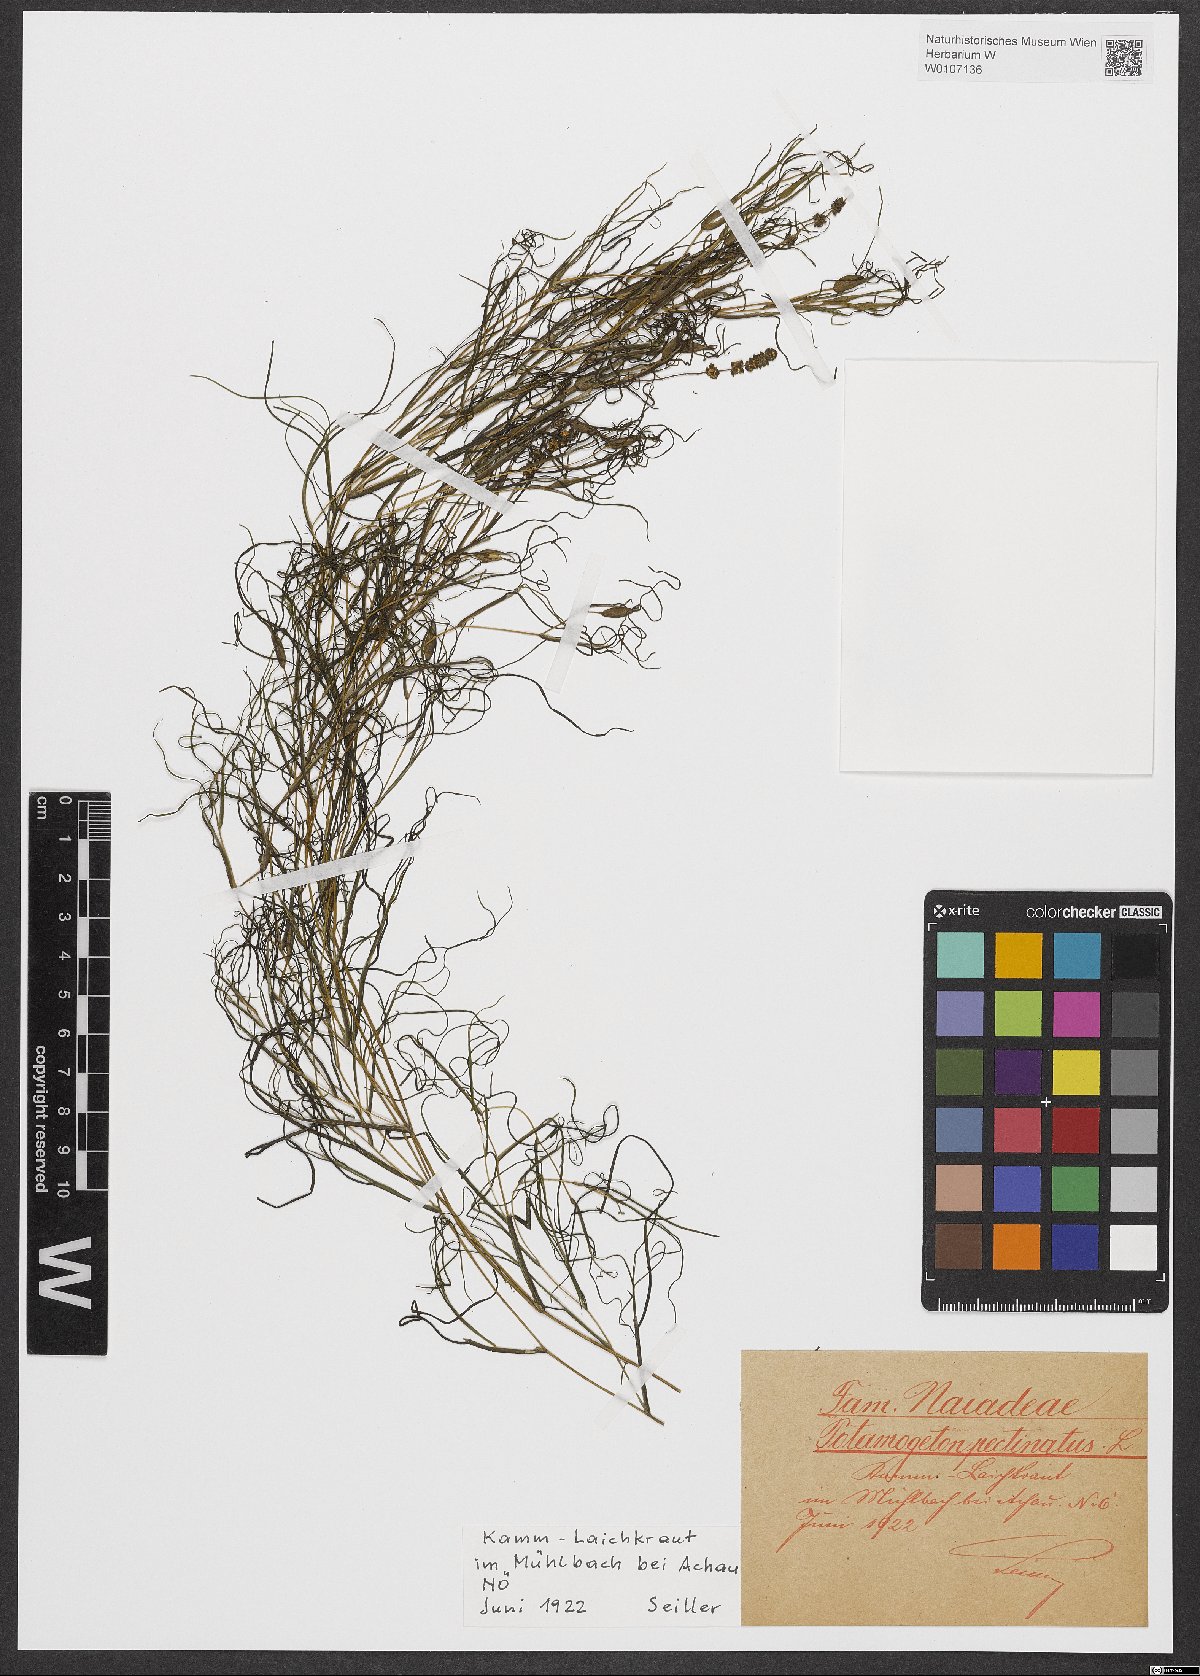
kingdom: Plantae
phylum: Tracheophyta
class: Liliopsida
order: Alismatales
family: Potamogetonaceae
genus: Stuckenia
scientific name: Stuckenia pectinata
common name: Sago pondweed
